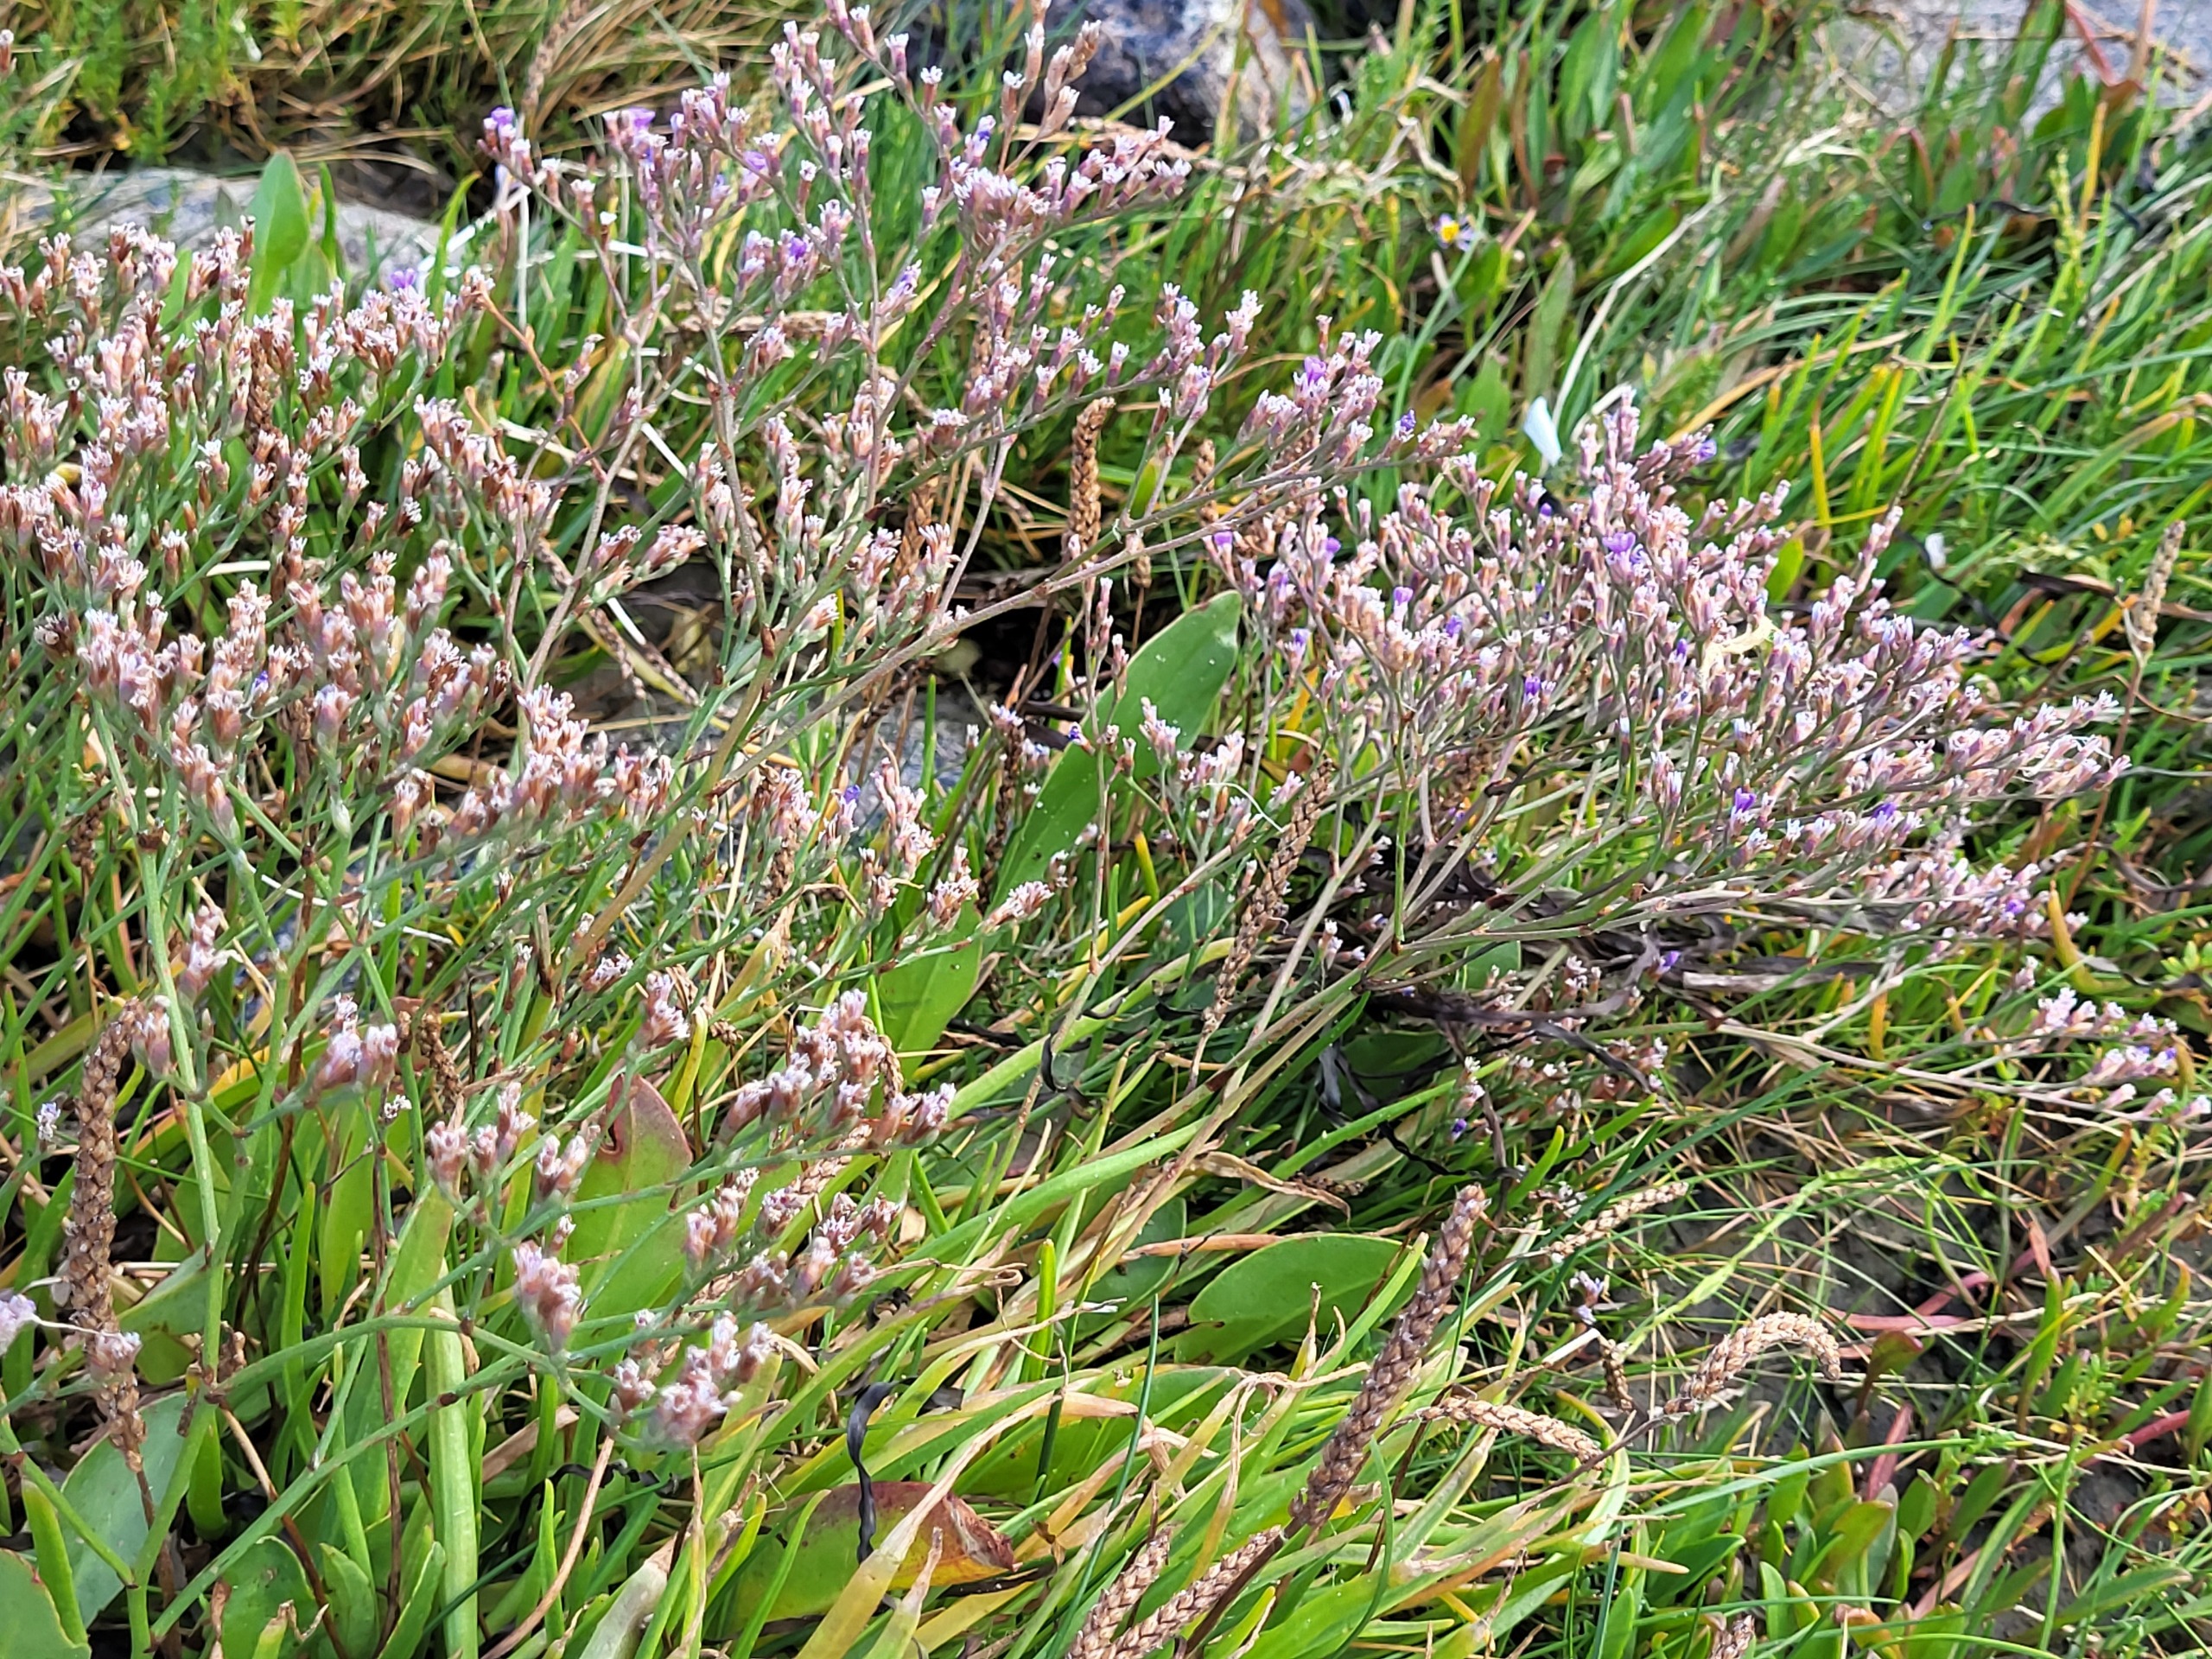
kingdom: Plantae
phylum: Tracheophyta
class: Magnoliopsida
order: Caryophyllales
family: Plumbaginaceae
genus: Limonium
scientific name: Limonium humile
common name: Lav hindebæger
